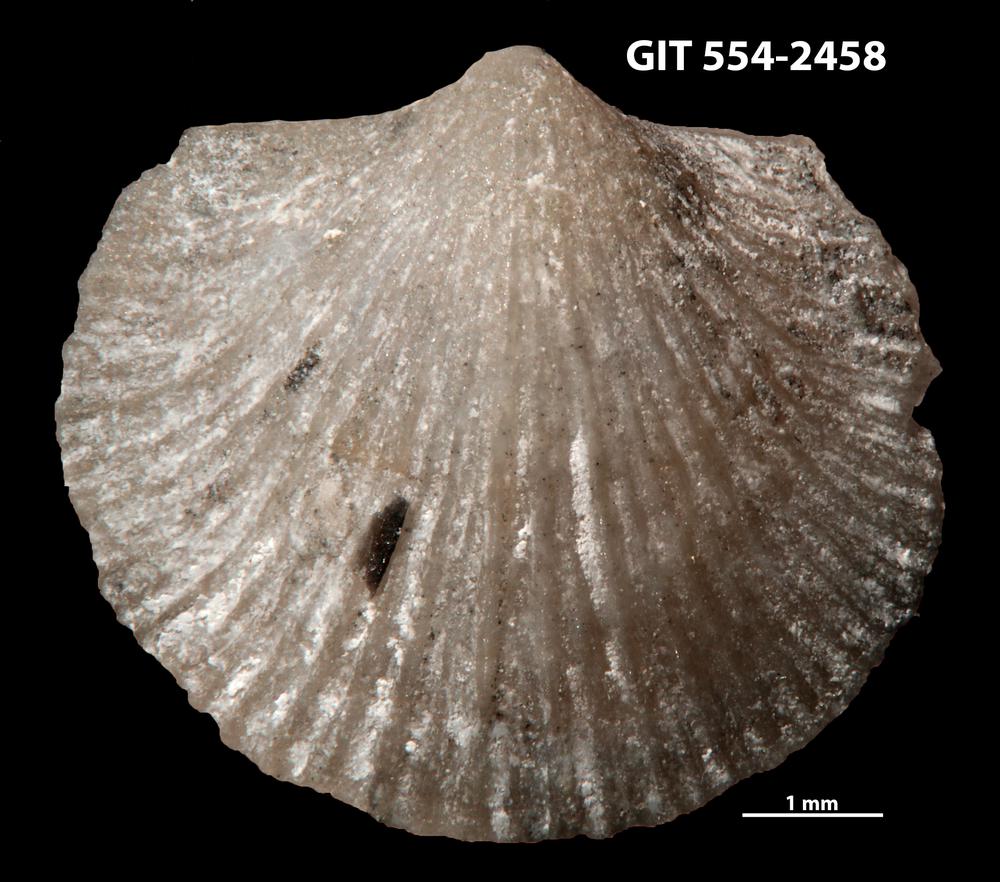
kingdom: Animalia
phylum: Brachiopoda
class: Rhynchonellata
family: Dalmanellidae
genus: Dalmanella
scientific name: Dalmanella rosensteinae
